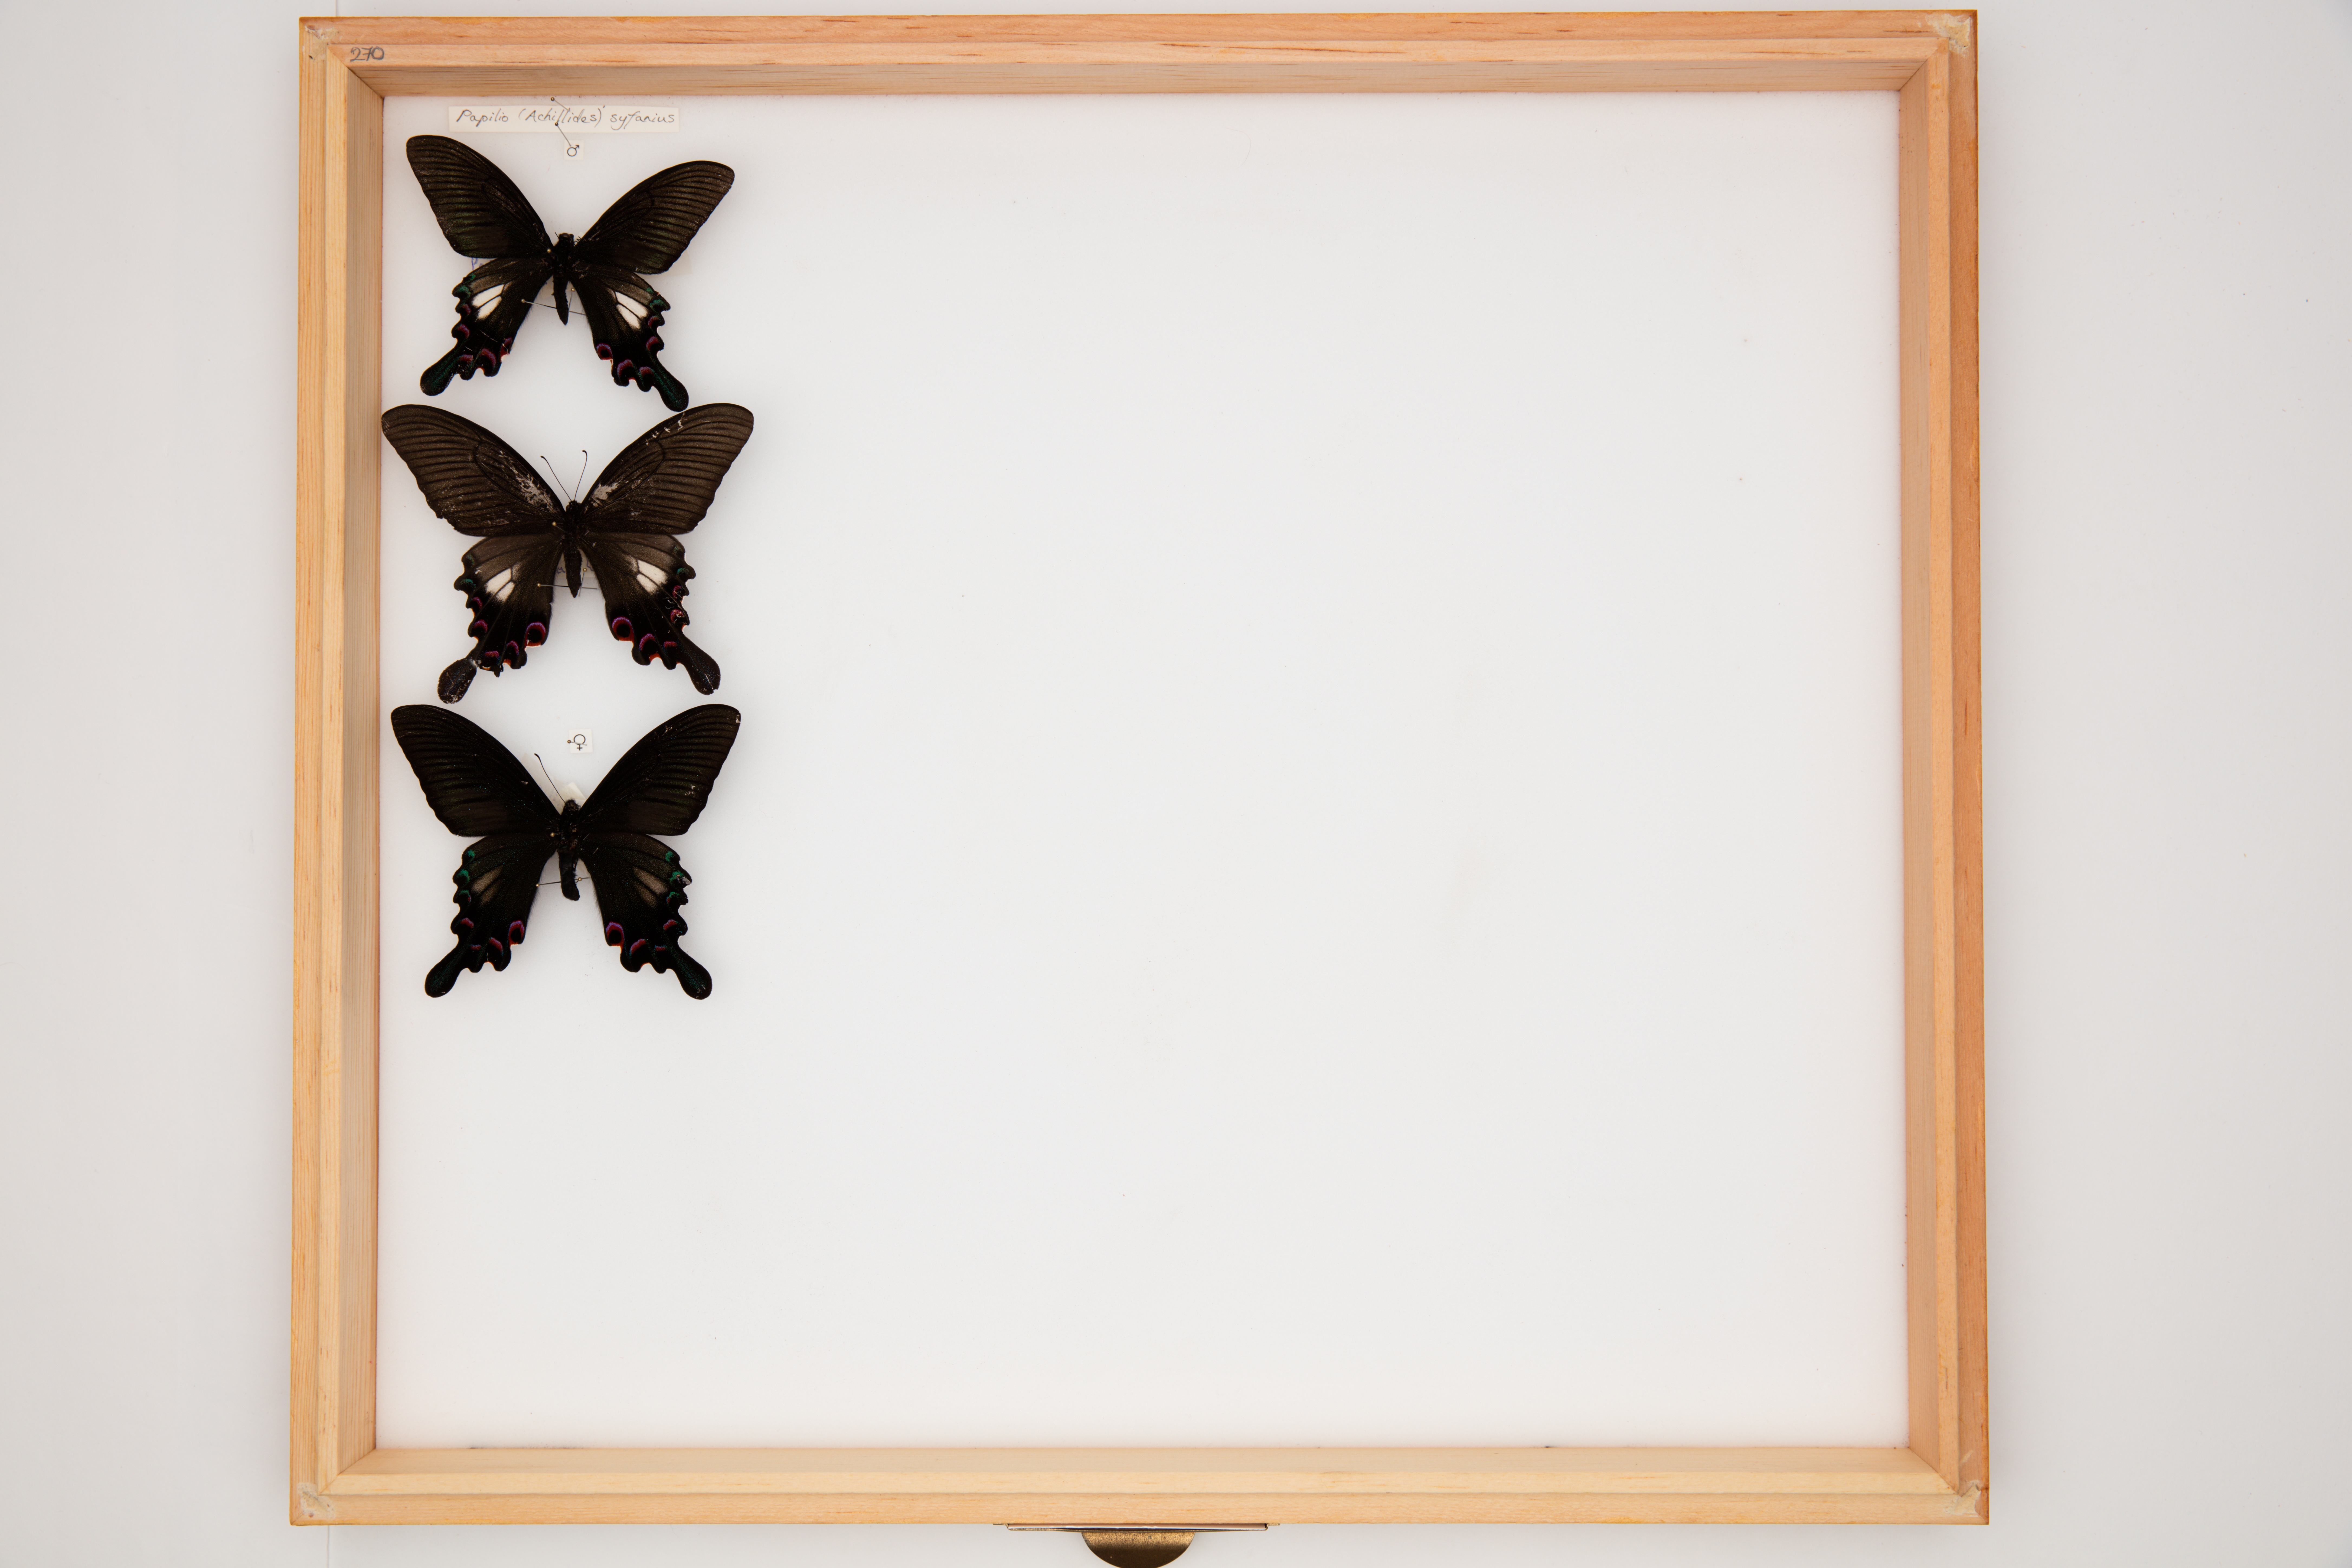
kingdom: Animalia
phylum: Arthropoda
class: Insecta
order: Lepidoptera
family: Papilionidae
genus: Papilio
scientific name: Papilio syfanius
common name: Yunnan peacock
